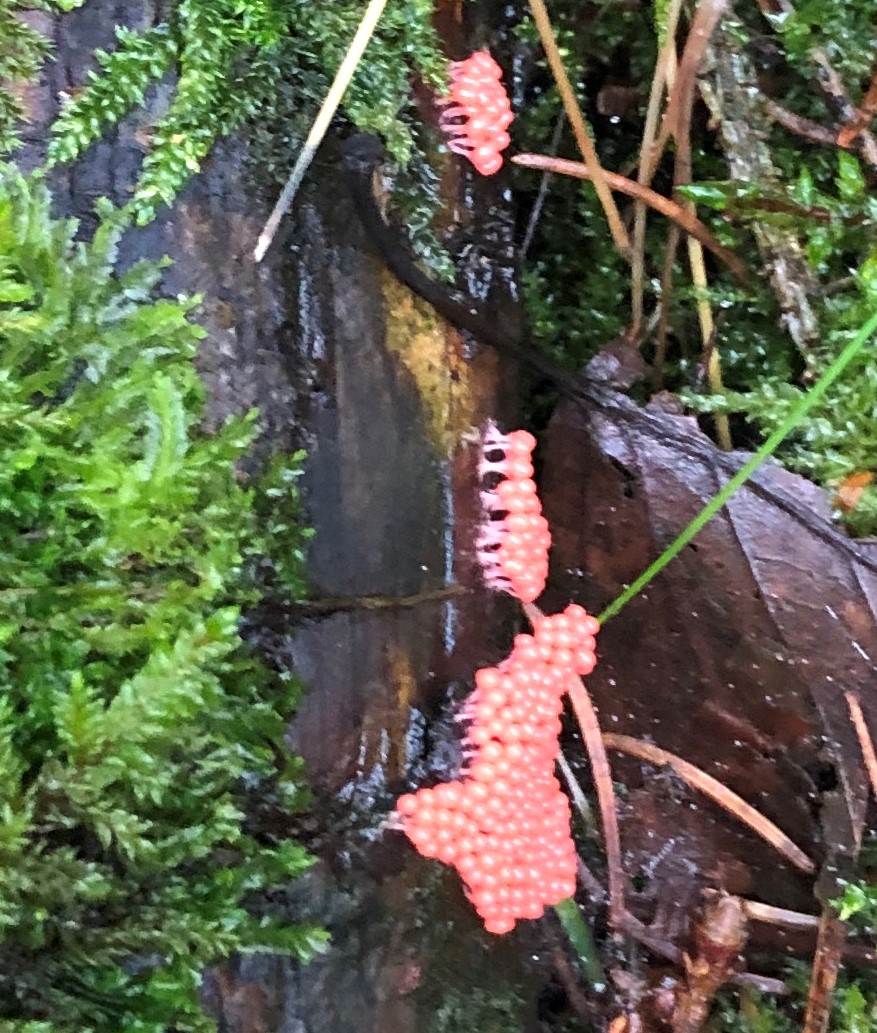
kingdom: Protozoa
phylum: Mycetozoa
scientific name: Mycetozoa
